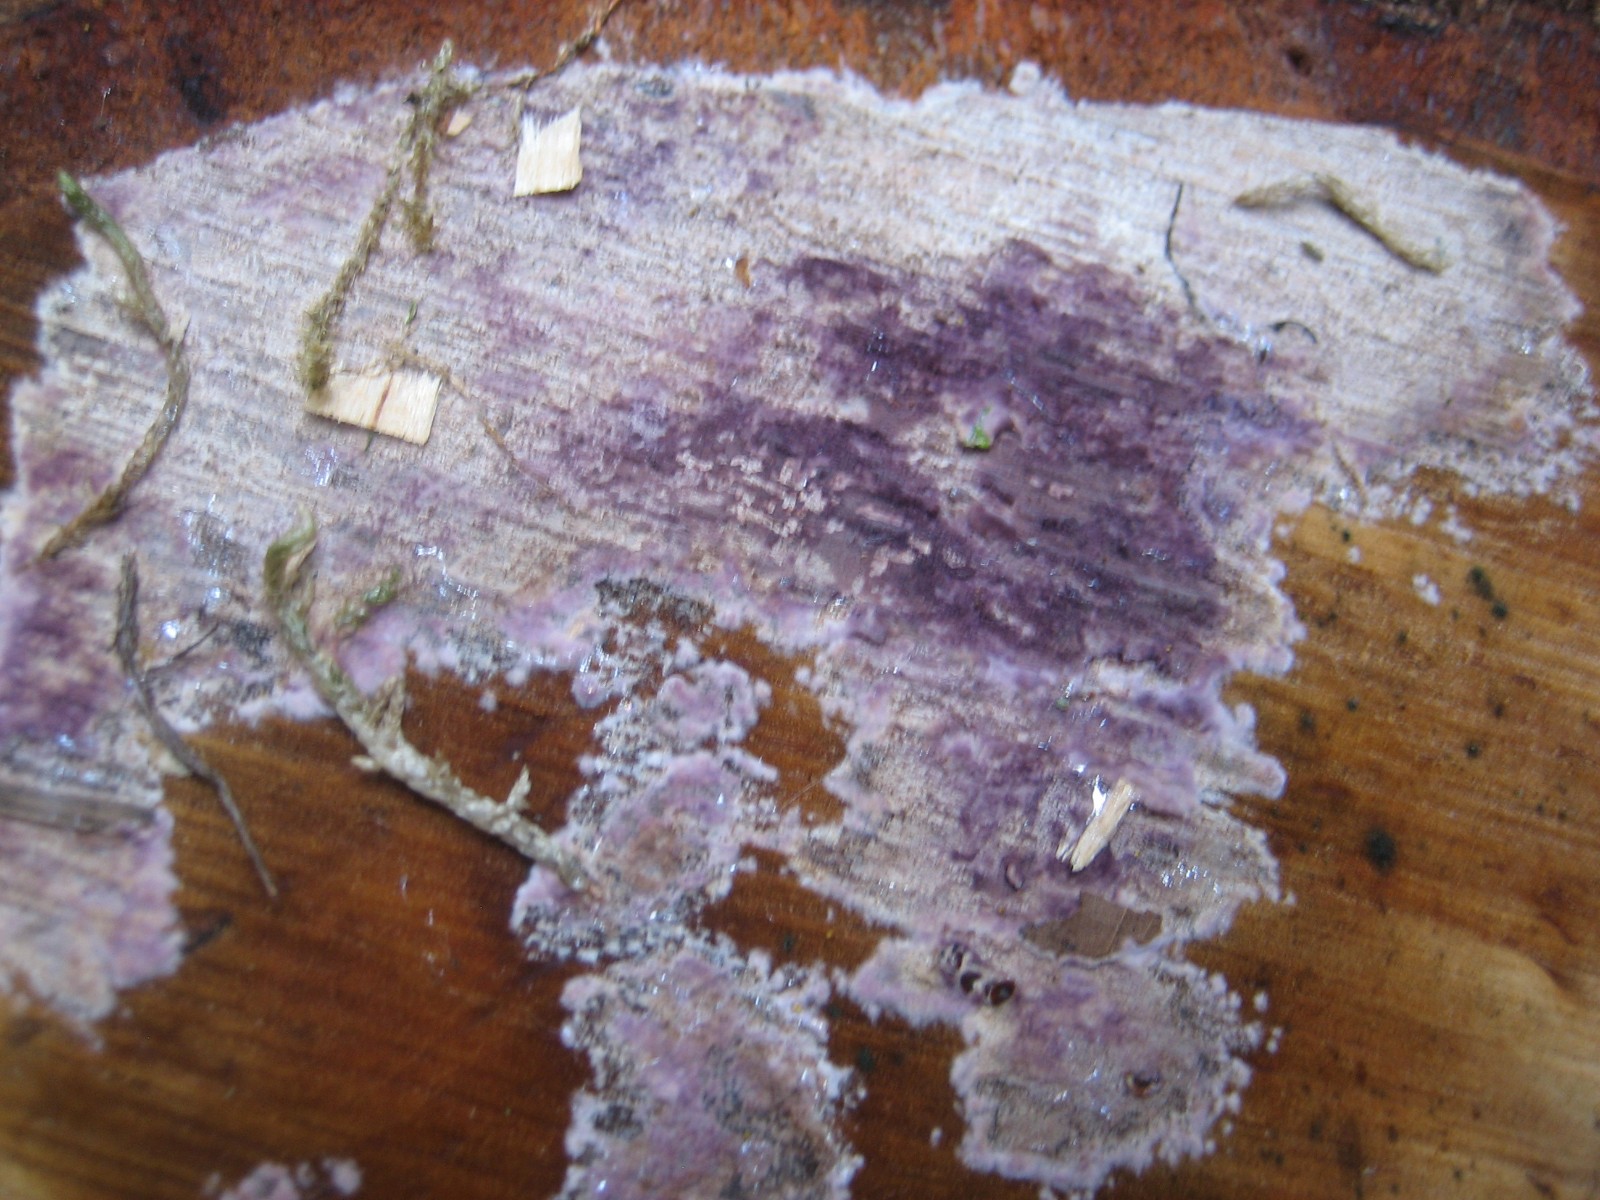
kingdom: Fungi
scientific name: Fungi
